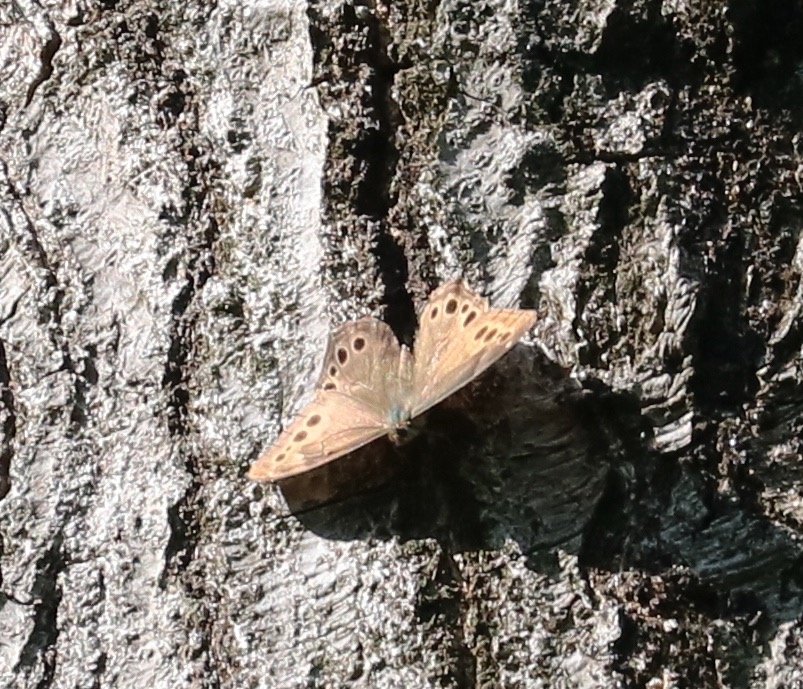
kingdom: Animalia
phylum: Arthropoda
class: Insecta
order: Lepidoptera
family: Nymphalidae
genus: Lethe
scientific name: Lethe anthedon
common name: Northern Pearly-Eye
